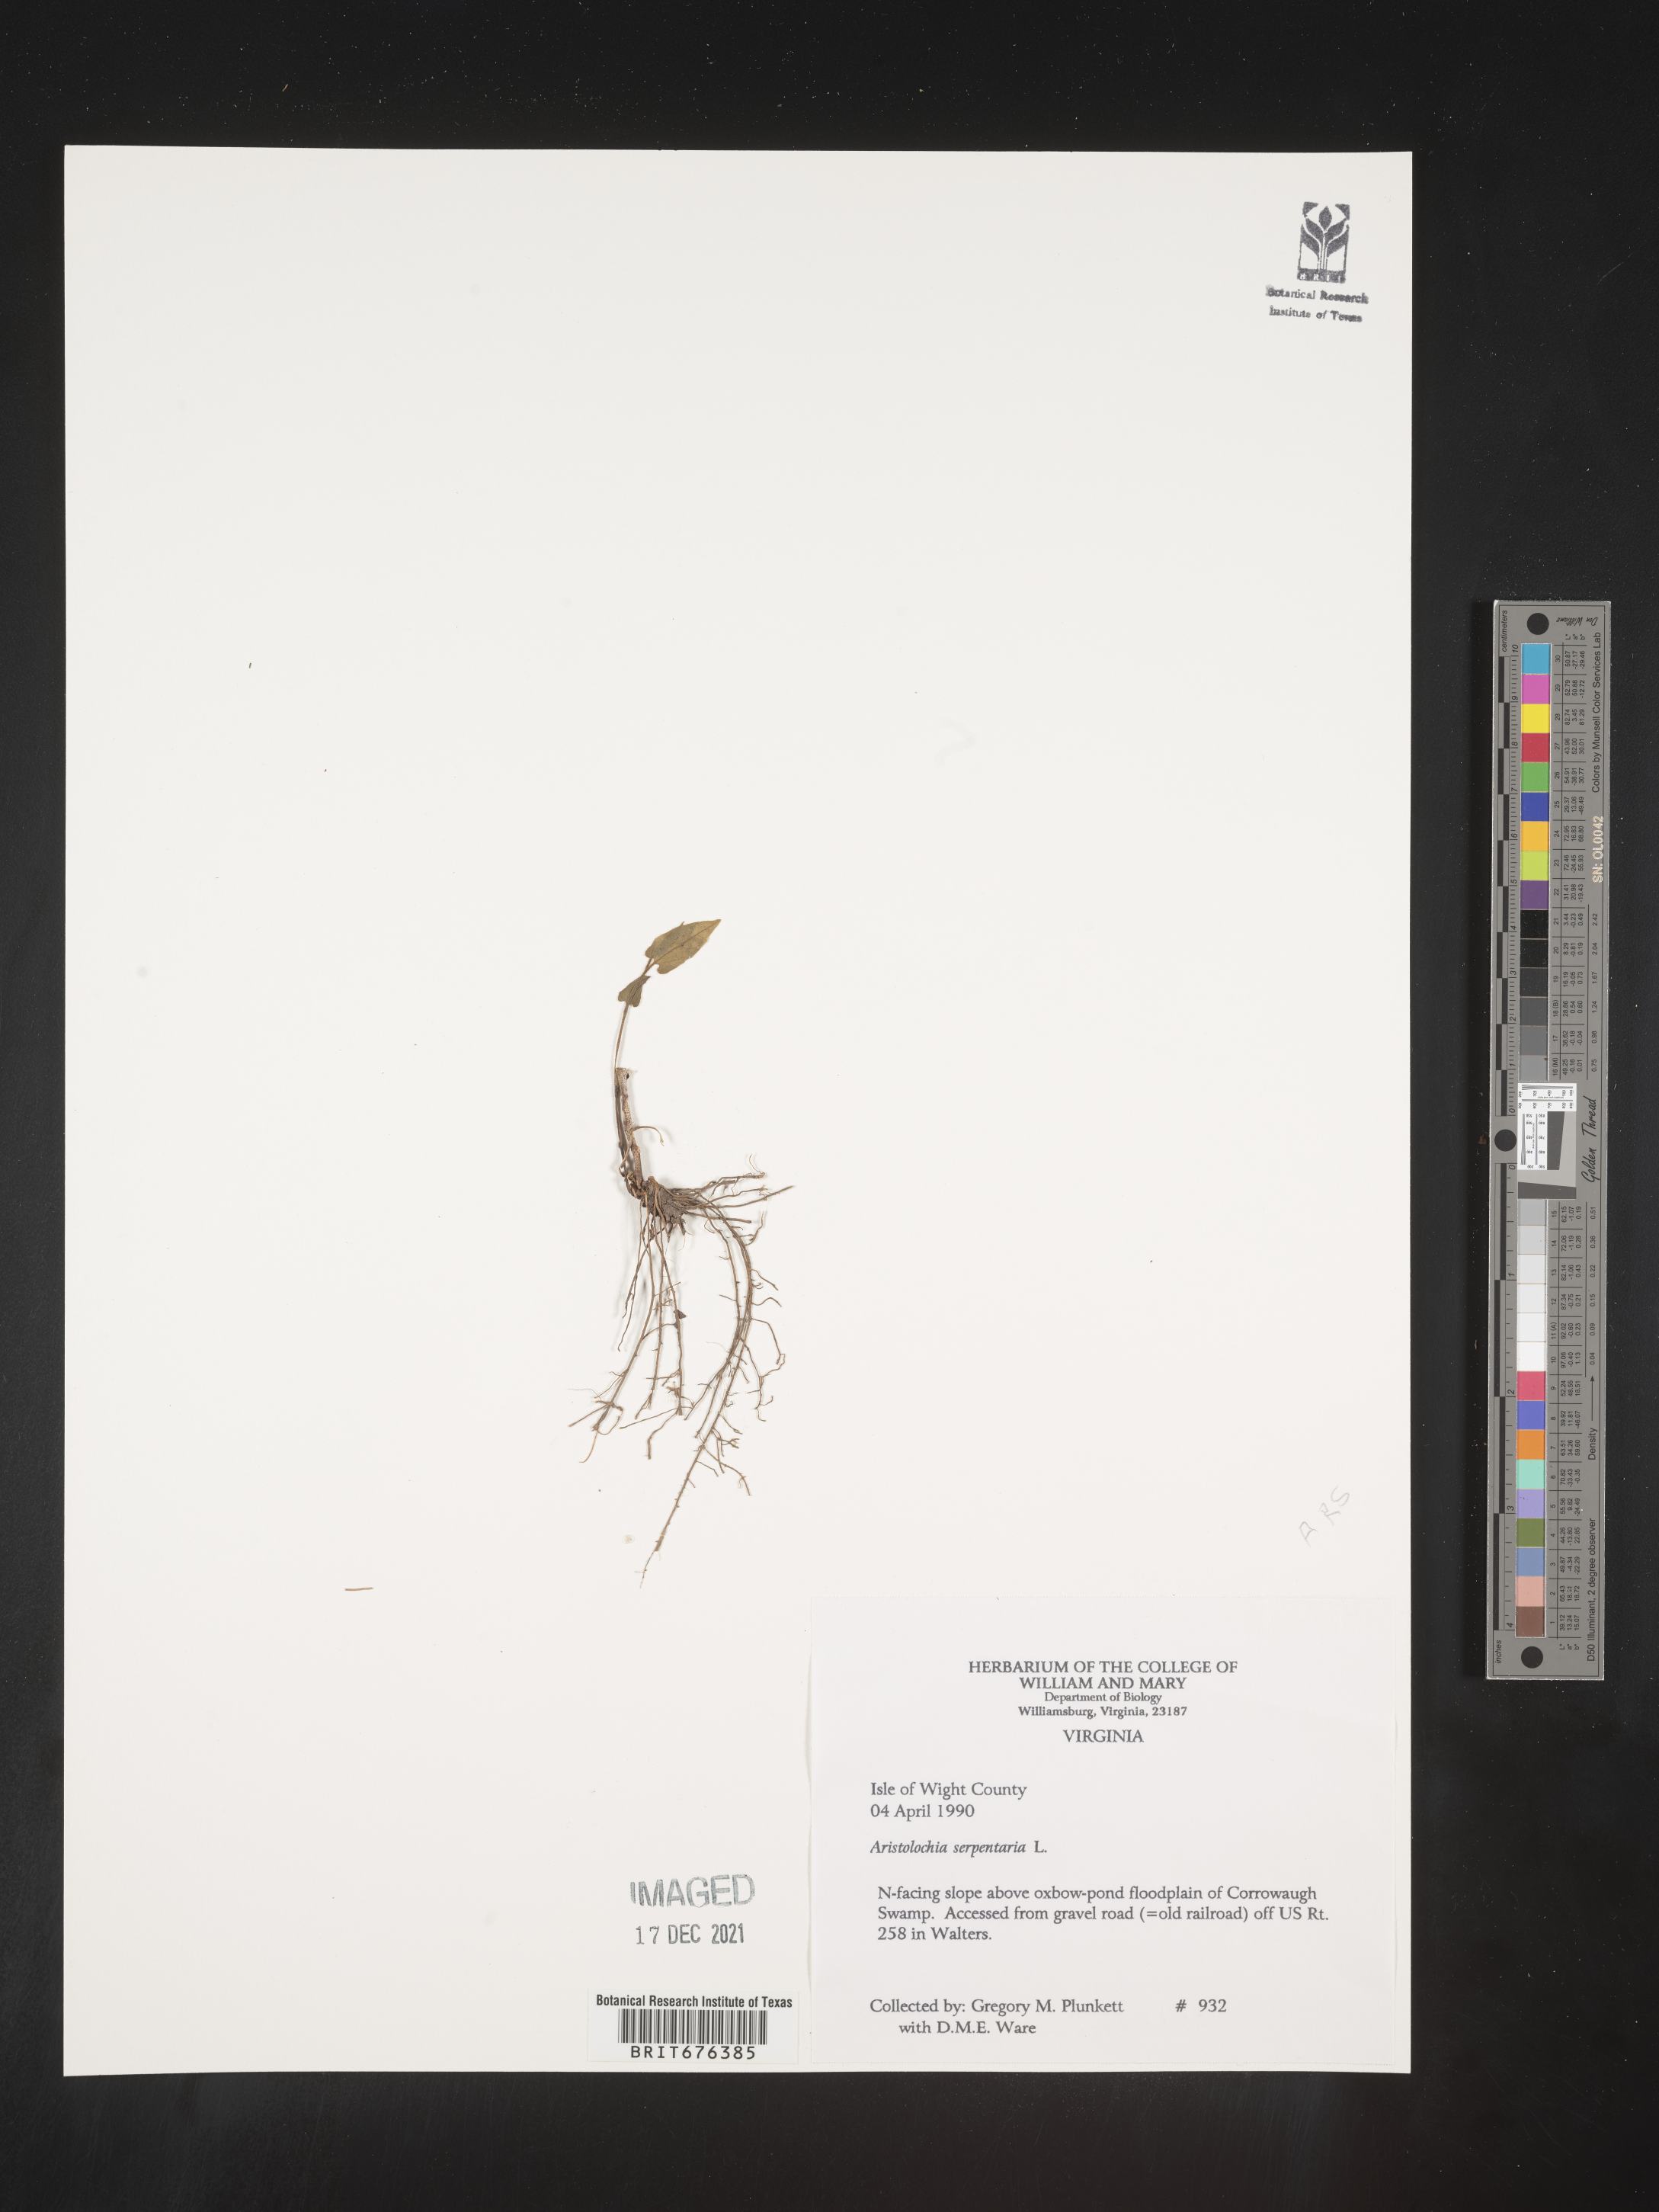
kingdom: Plantae
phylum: Tracheophyta
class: Magnoliopsida
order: Piperales
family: Aristolochiaceae
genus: Aristolochia
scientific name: Aristolochia
